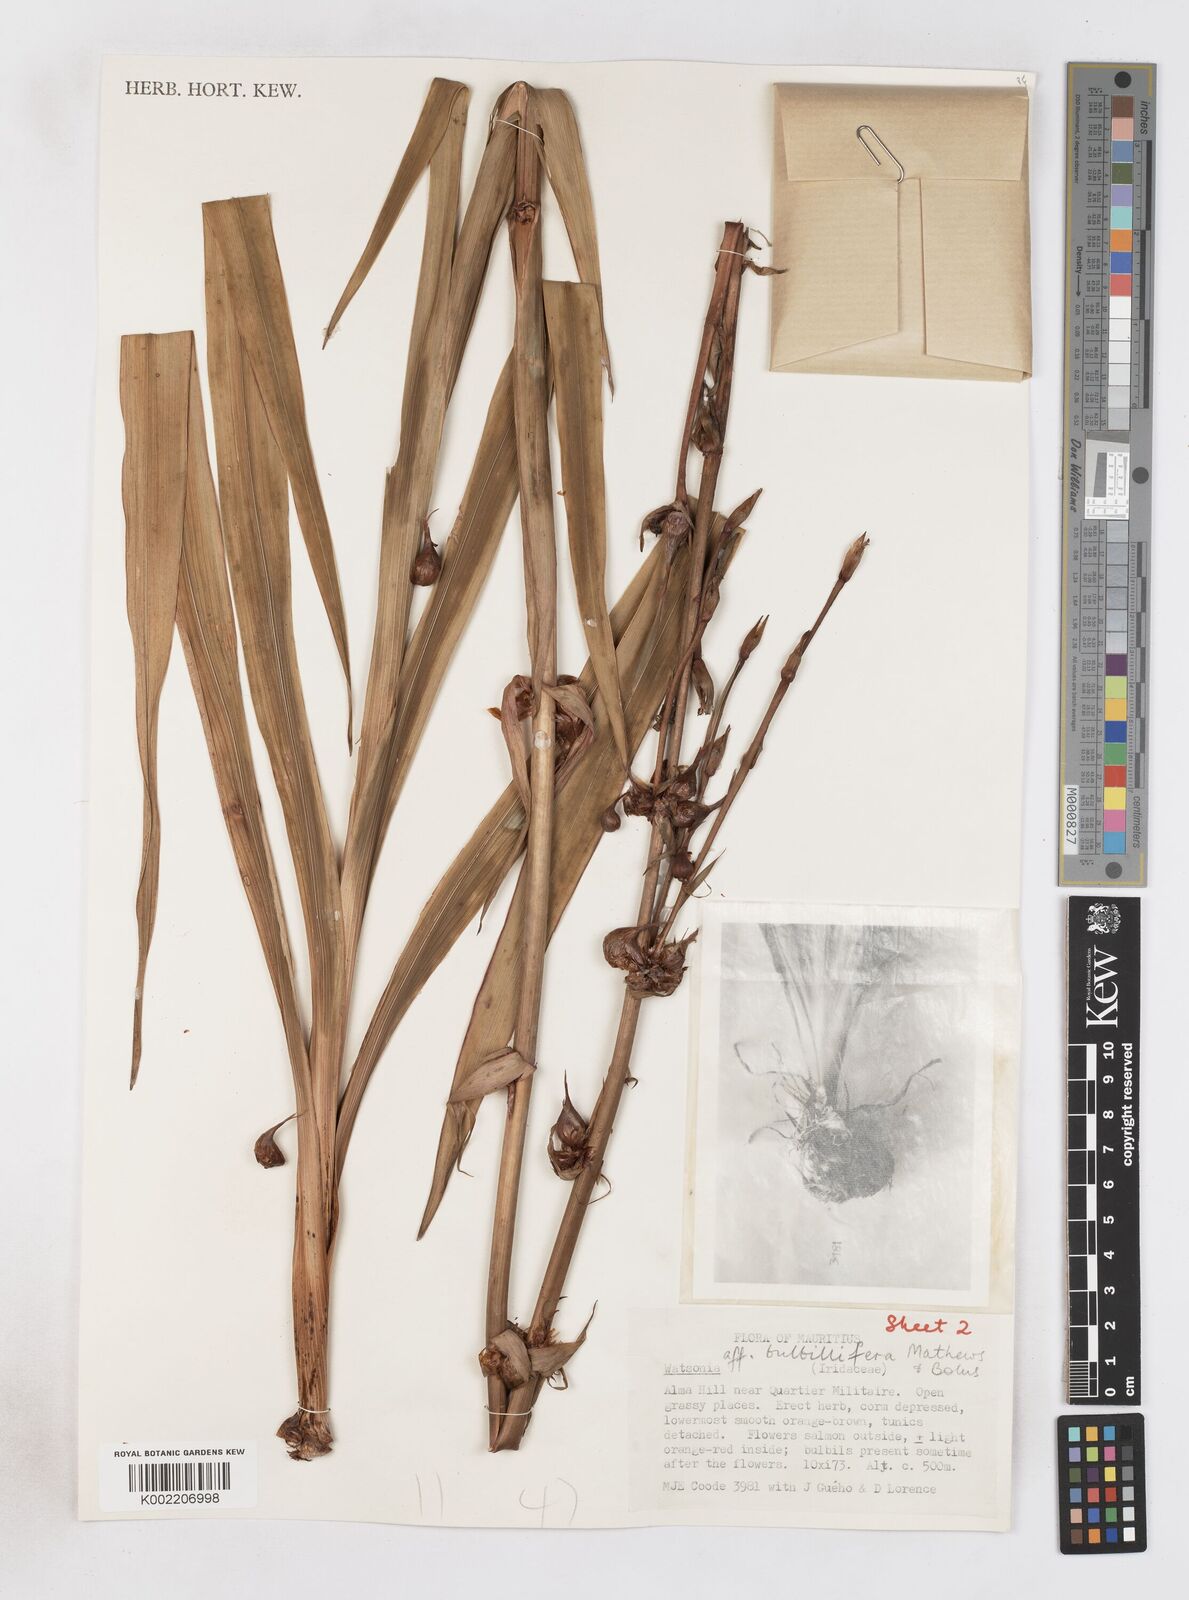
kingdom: Plantae
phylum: Tracheophyta
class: Liliopsida
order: Asparagales
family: Iridaceae
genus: Watsonia
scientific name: Watsonia meriana
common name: Bulbil bugle-lily
